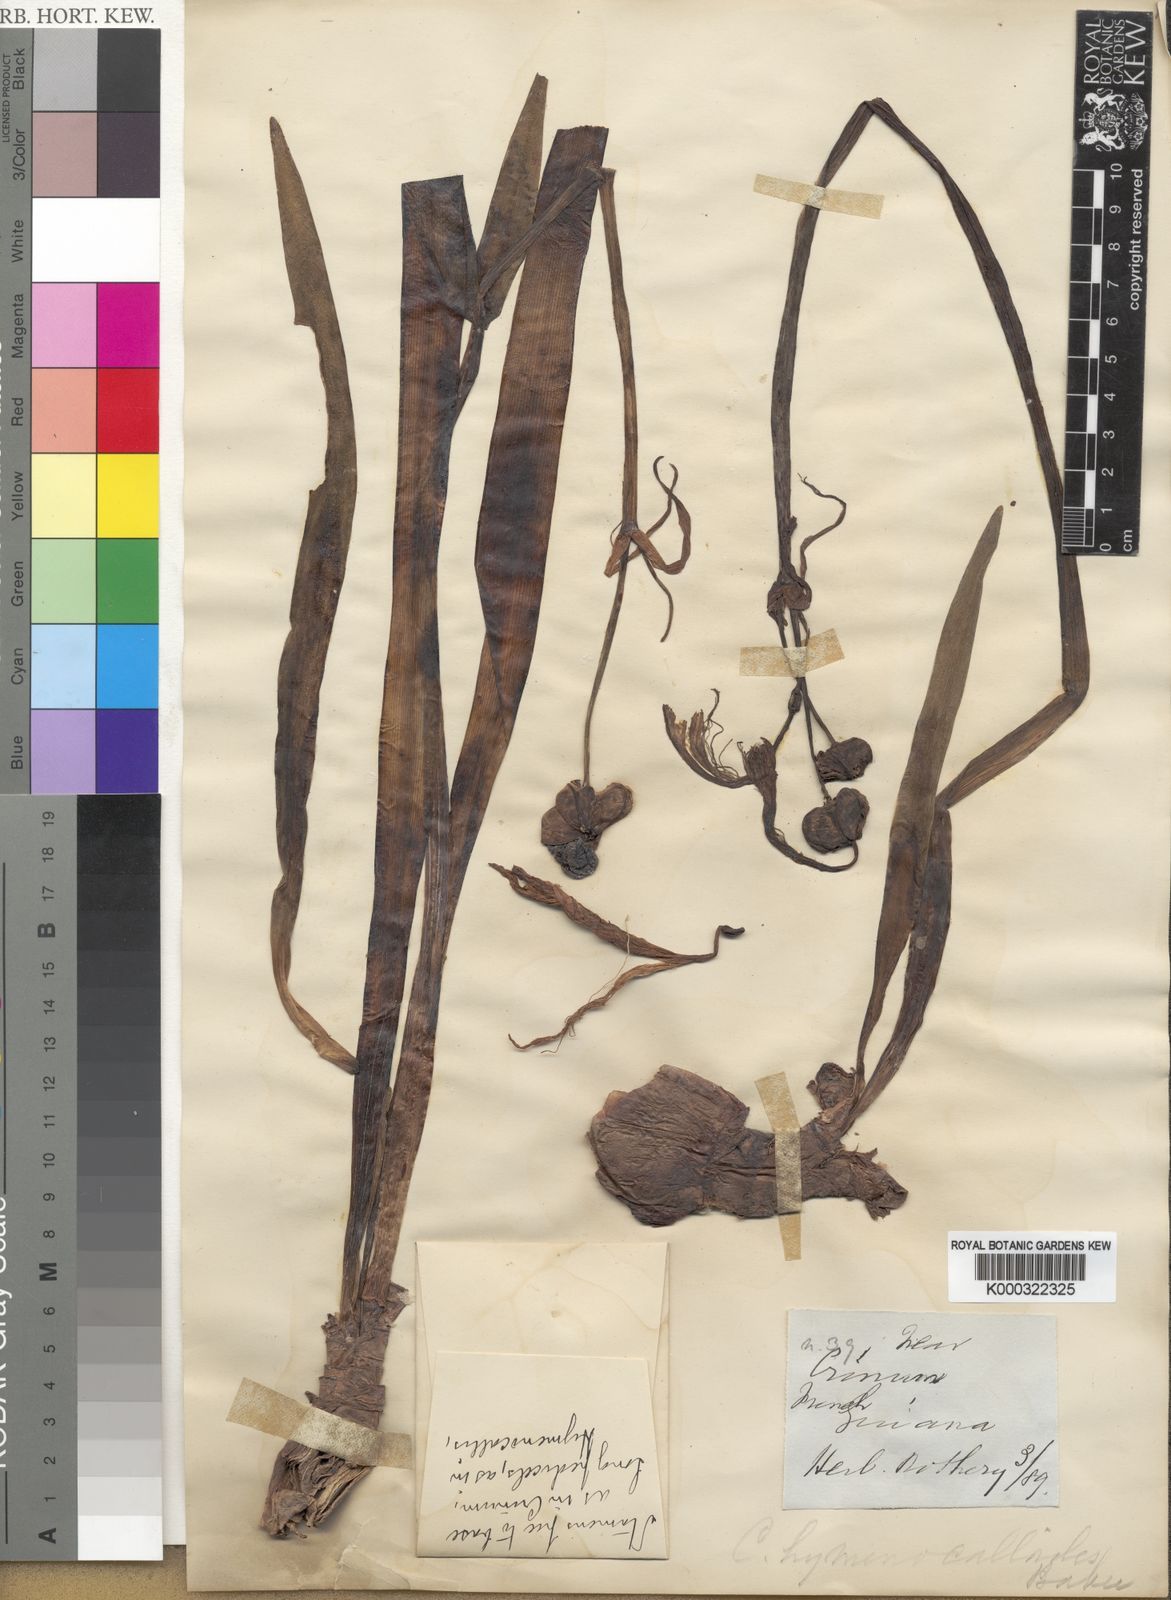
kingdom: Plantae
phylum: Tracheophyta
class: Liliopsida
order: Asparagales
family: Amaryllidaceae
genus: Crinum
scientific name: Crinum
